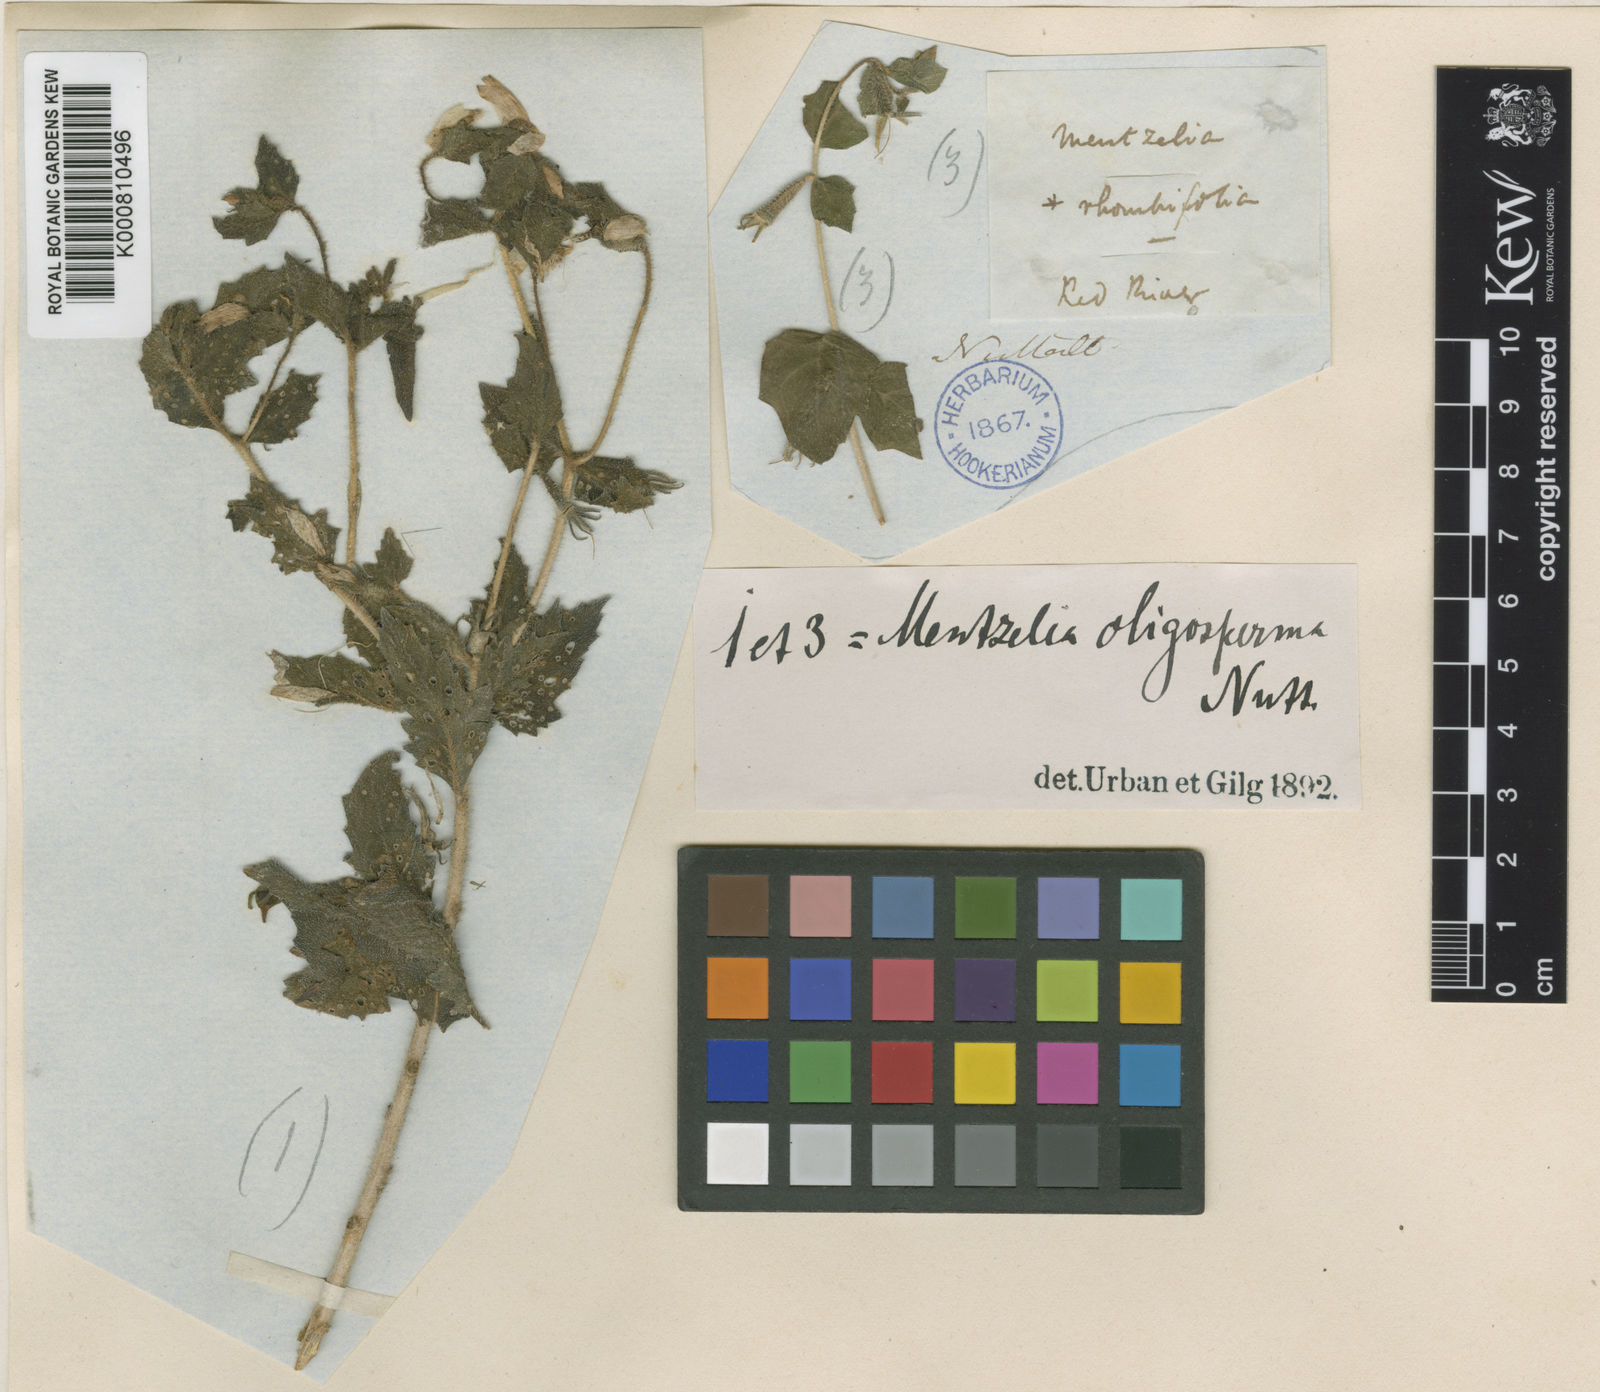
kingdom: Plantae
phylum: Tracheophyta
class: Magnoliopsida
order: Cornales
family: Loasaceae
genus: Mentzelia
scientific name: Mentzelia oligosperma
